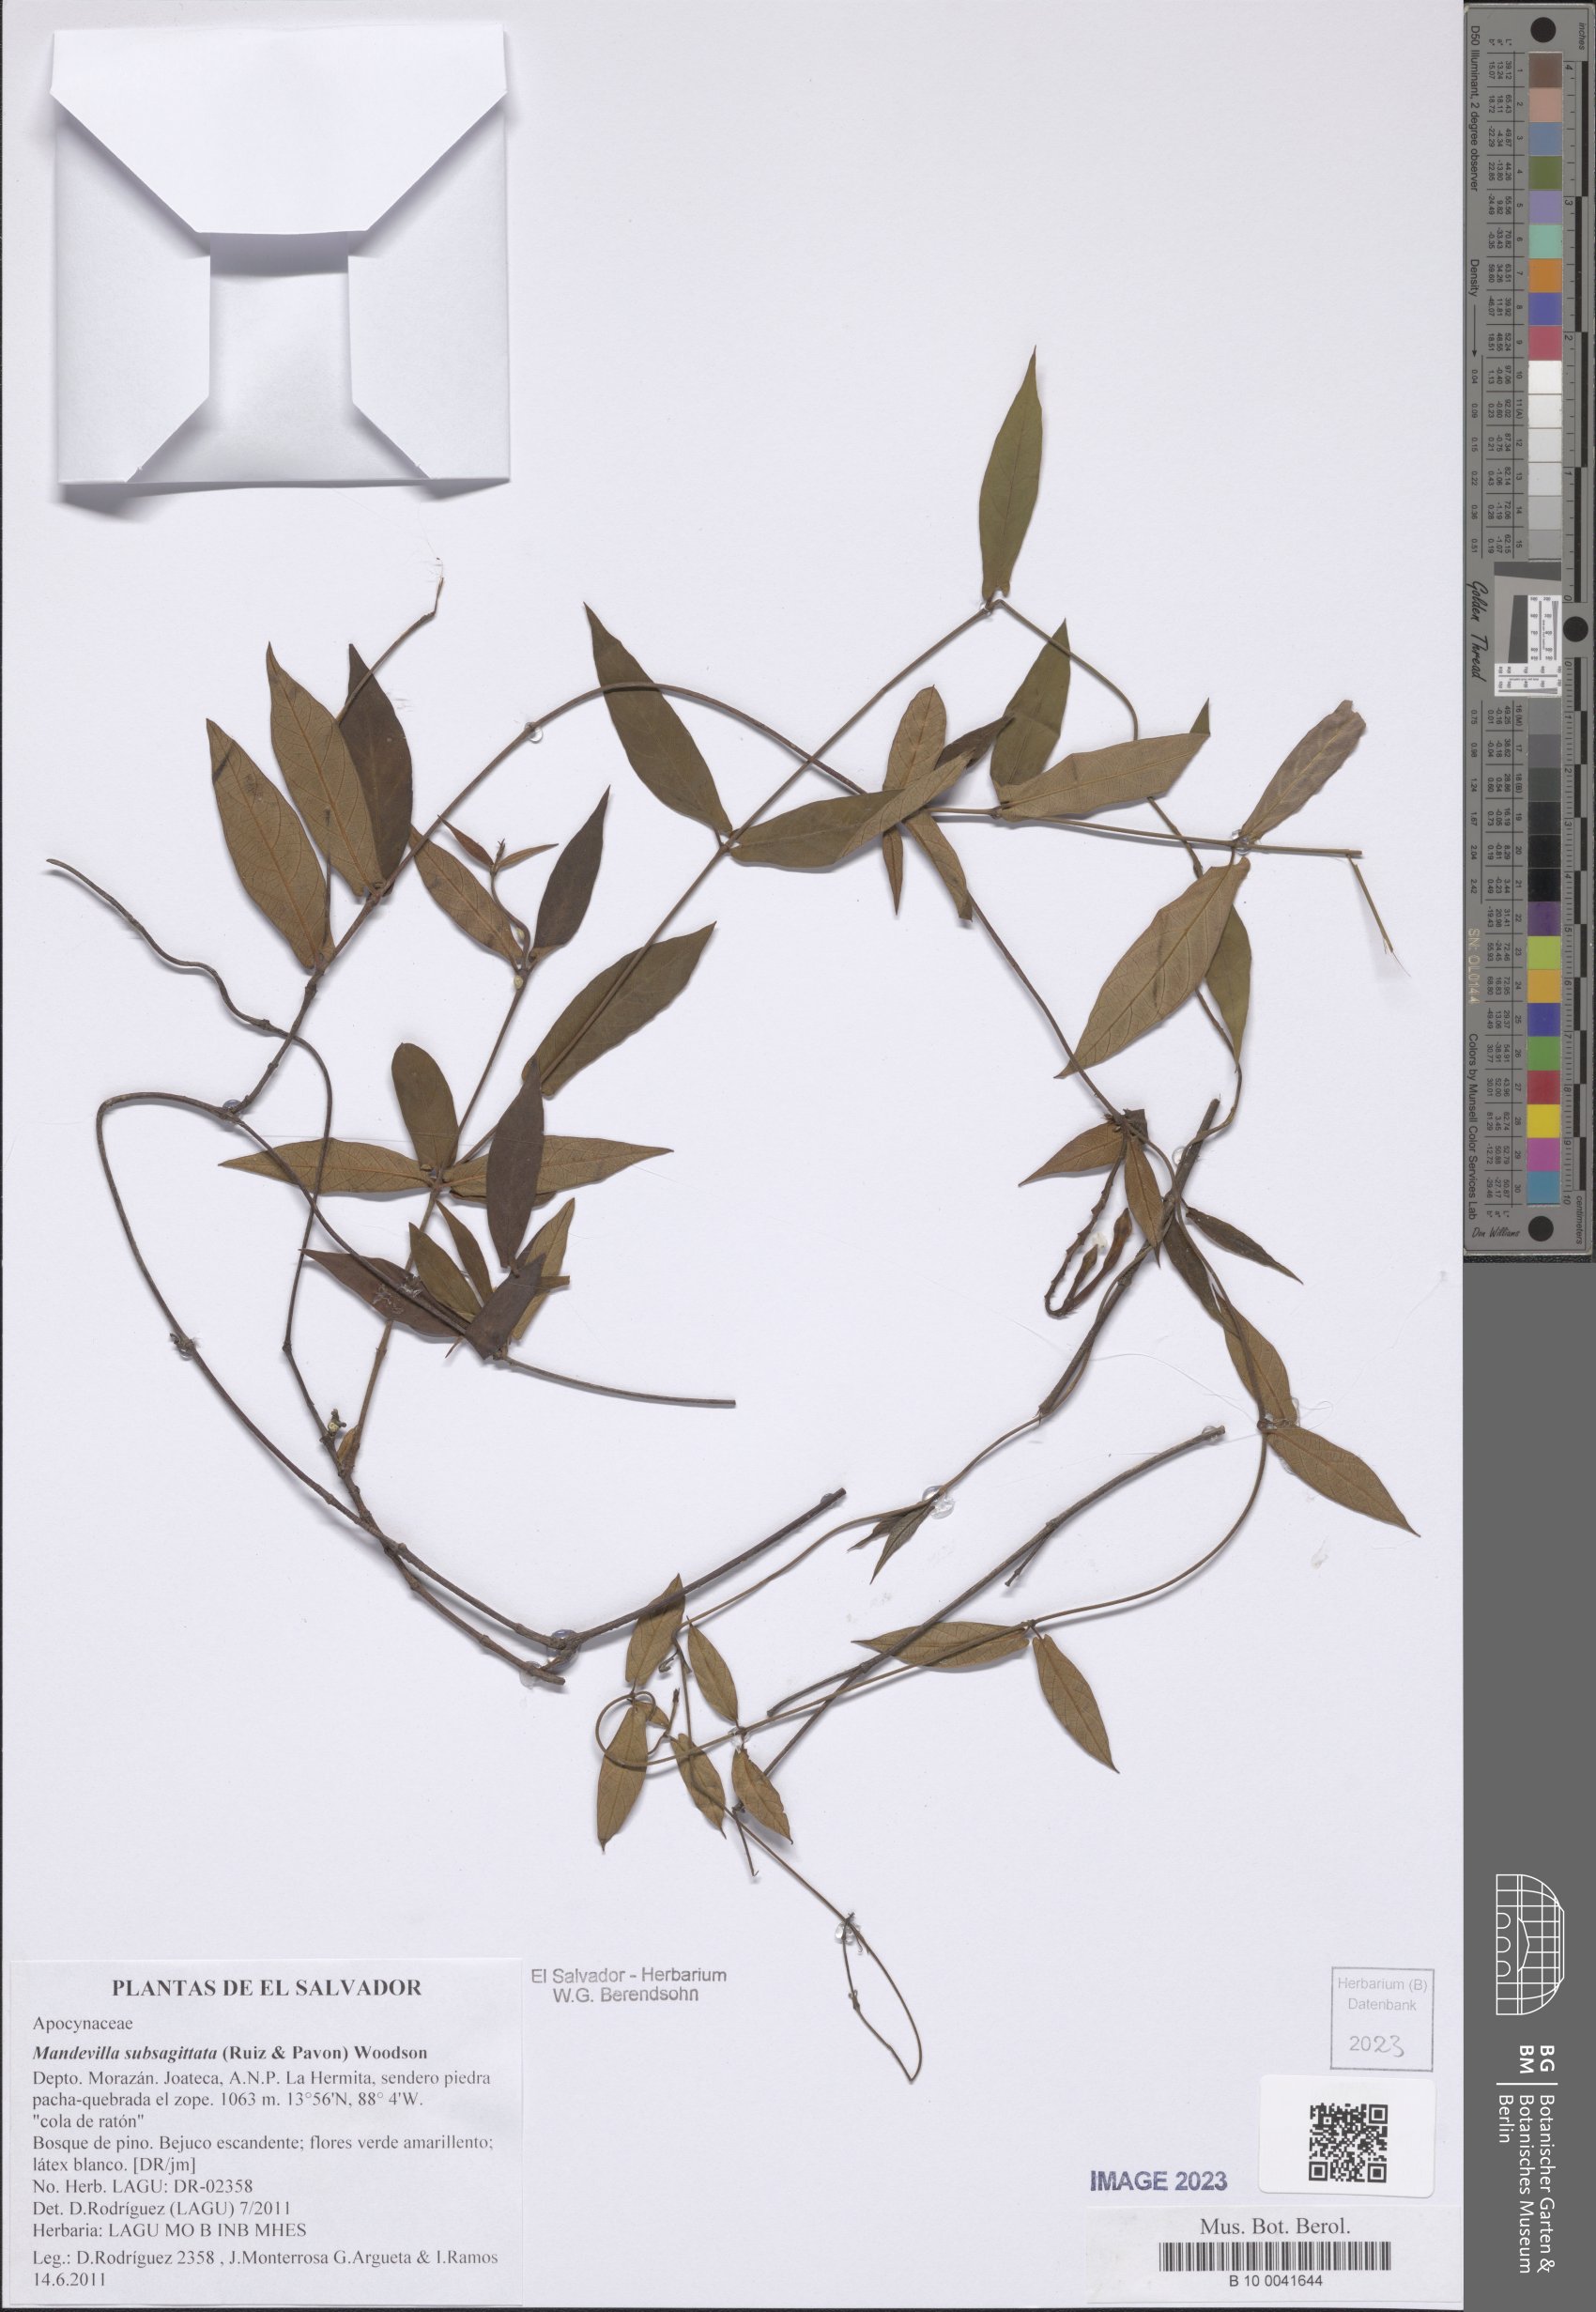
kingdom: Plantae
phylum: Tracheophyta
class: Magnoliopsida
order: Gentianales
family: Apocynaceae
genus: Mandevilla
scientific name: Mandevilla subsagittata
